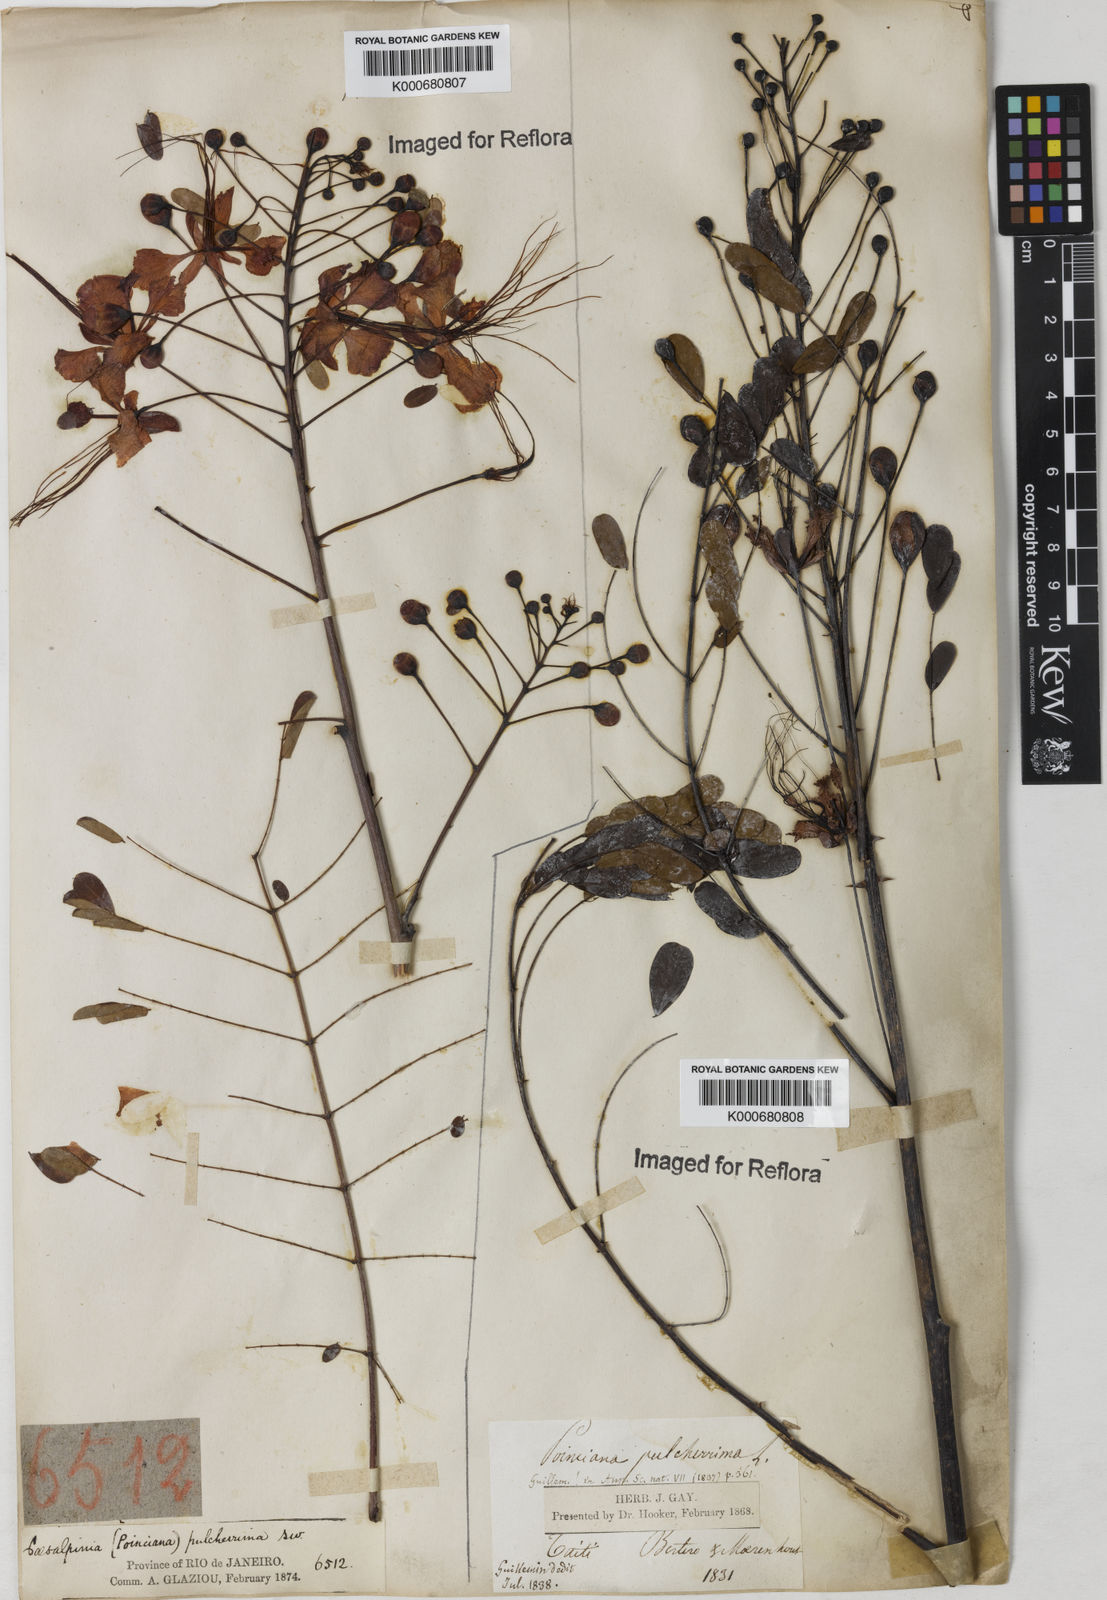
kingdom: Plantae
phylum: Tracheophyta
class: Magnoliopsida
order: Fabales
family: Fabaceae
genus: Caesalpinia
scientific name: Caesalpinia pulcherrima
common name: Pride-of-barbados
